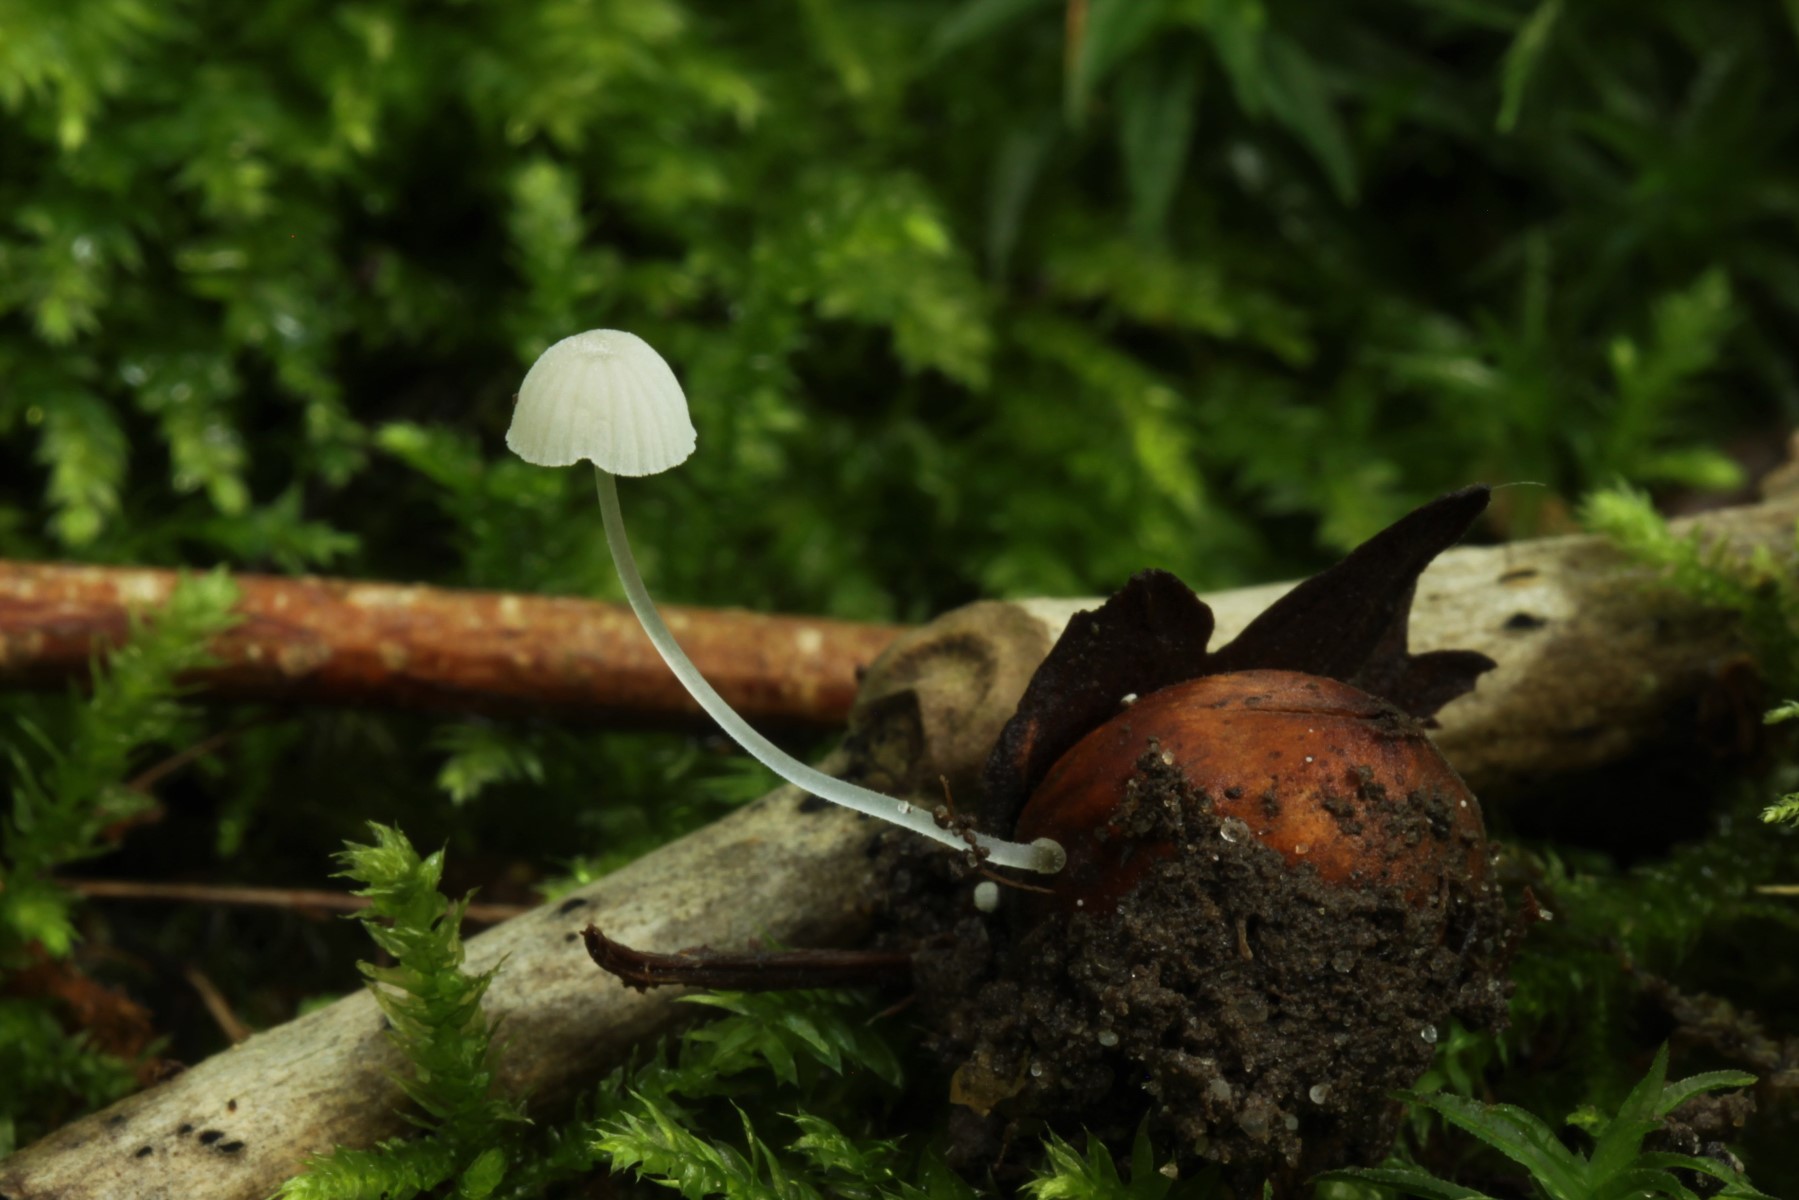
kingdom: Fungi
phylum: Basidiomycota
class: Agaricomycetes
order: Agaricales
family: Mycenaceae
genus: Mycena
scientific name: Mycena tenerrima
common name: pudret huesvamp
